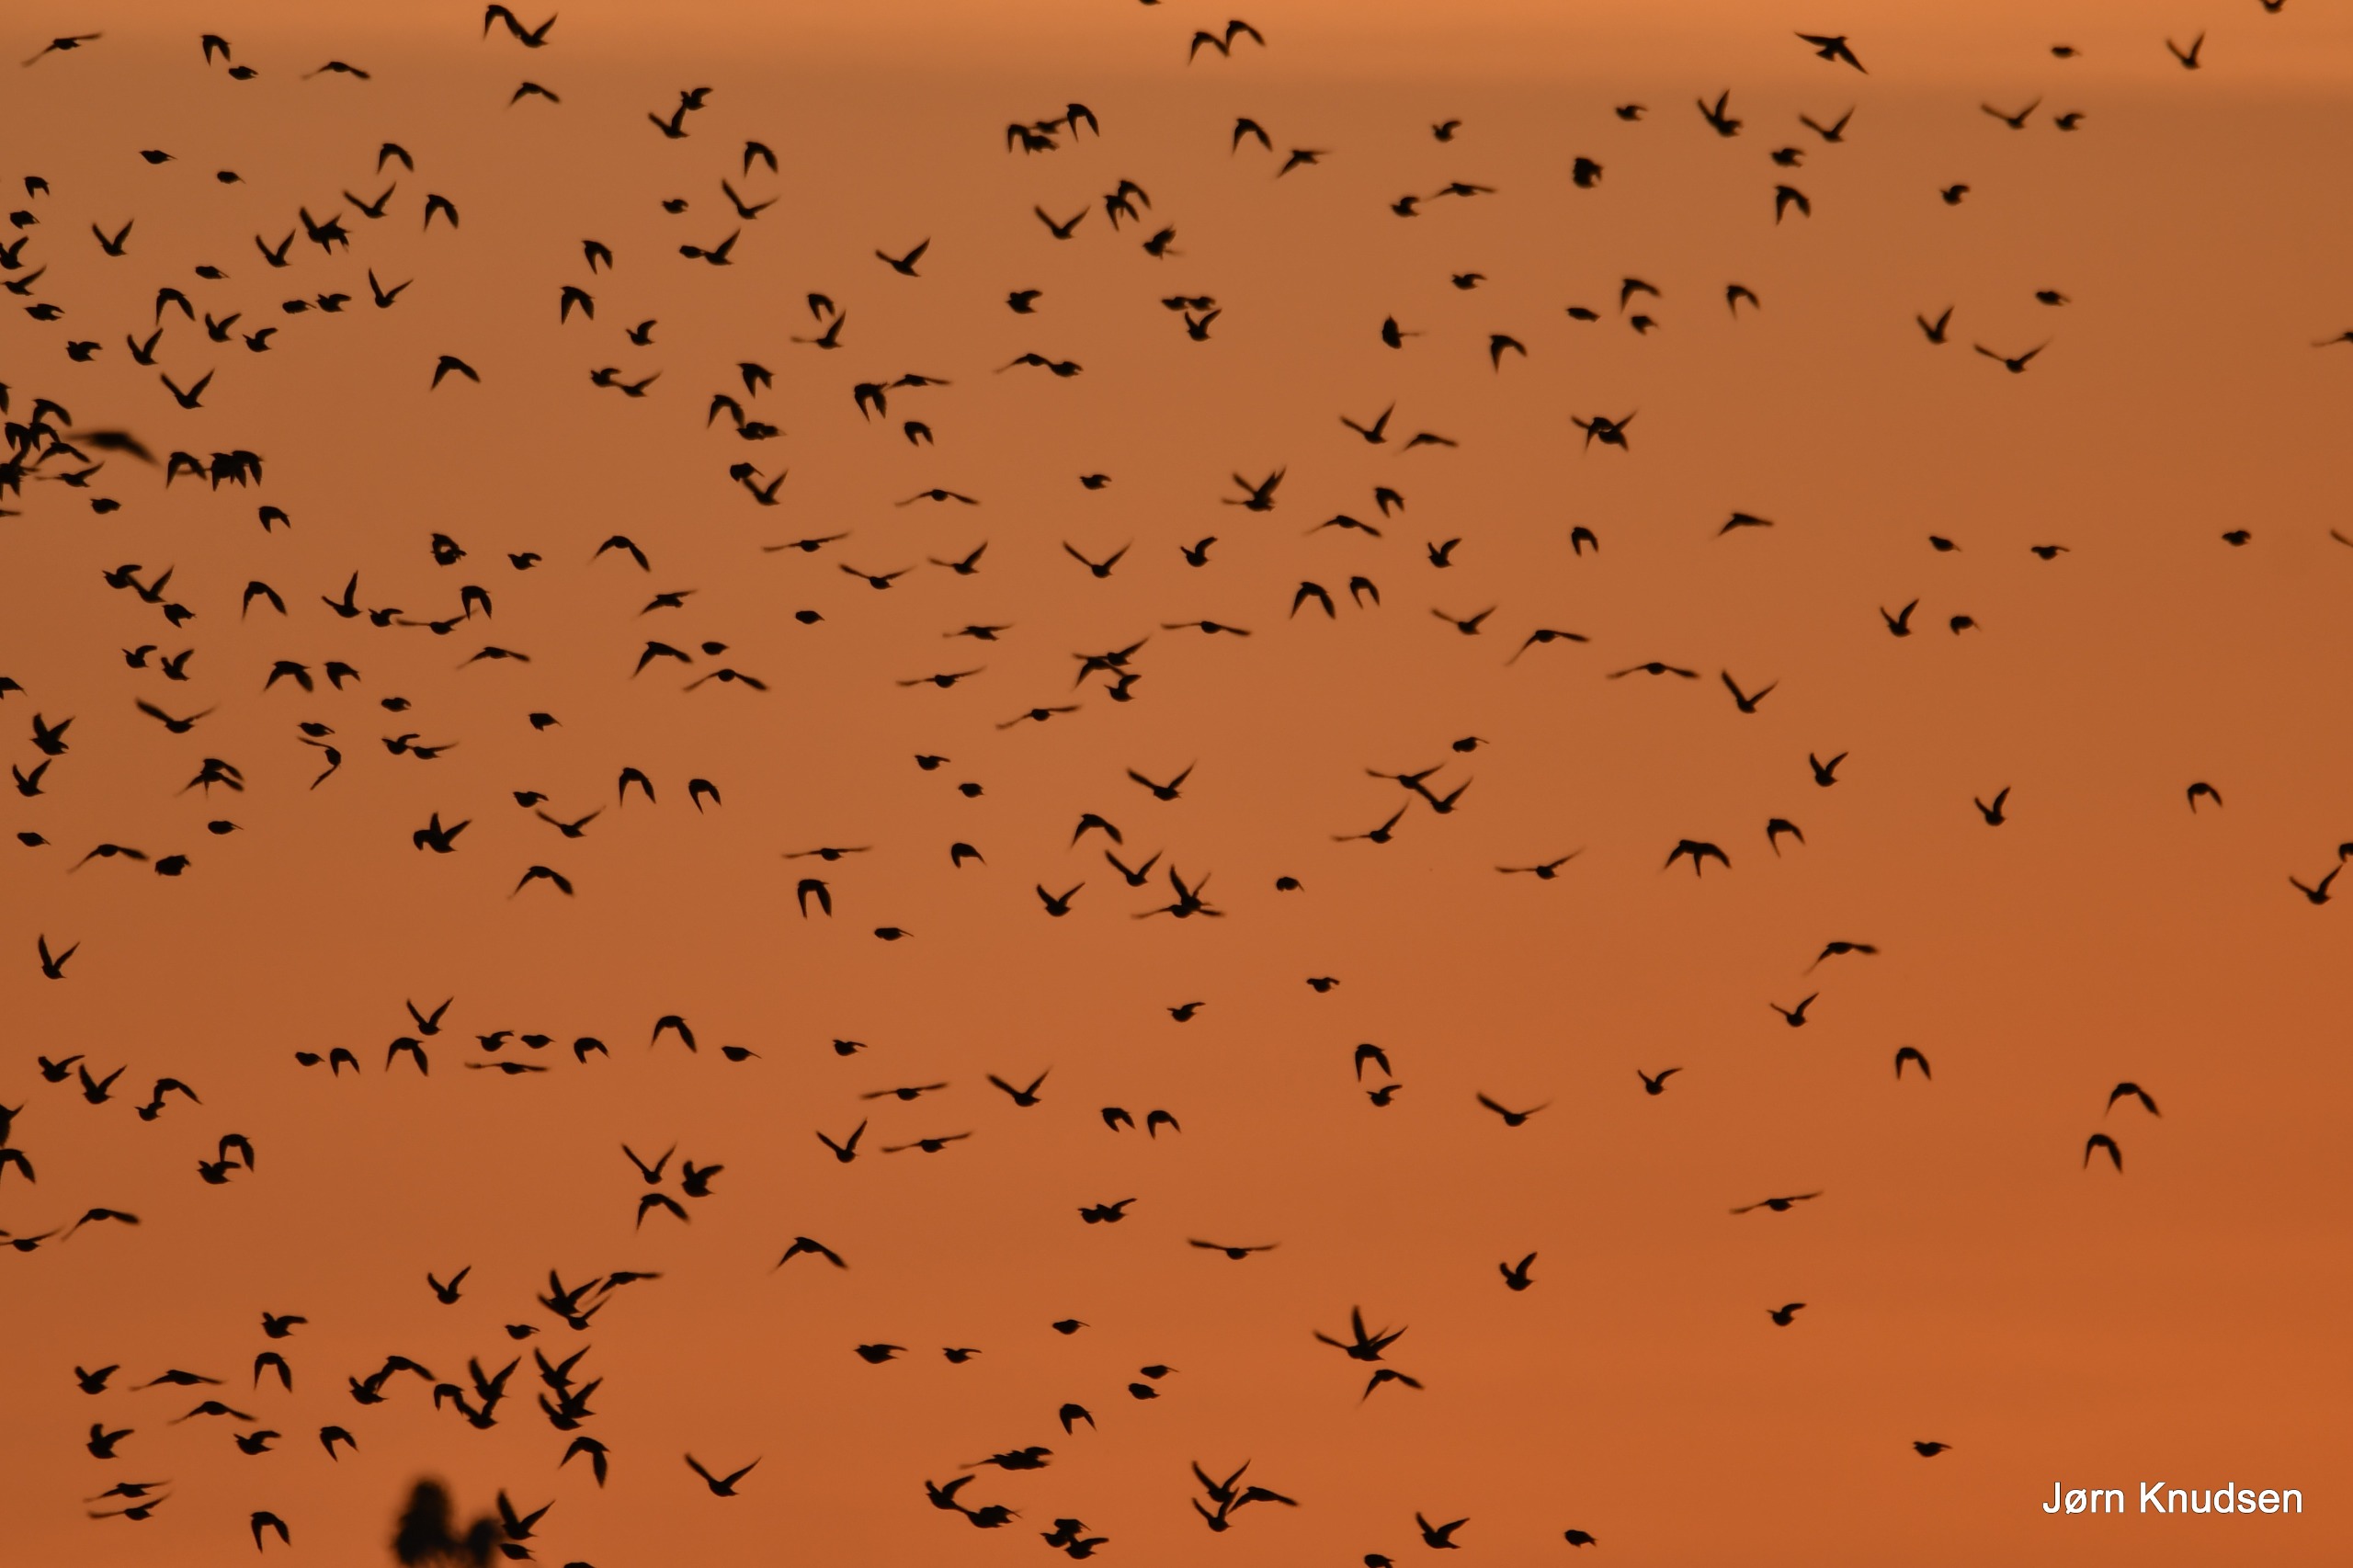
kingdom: Animalia
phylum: Chordata
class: Aves
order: Passeriformes
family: Sturnidae
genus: Sturnus
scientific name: Sturnus vulgaris
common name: Stær
